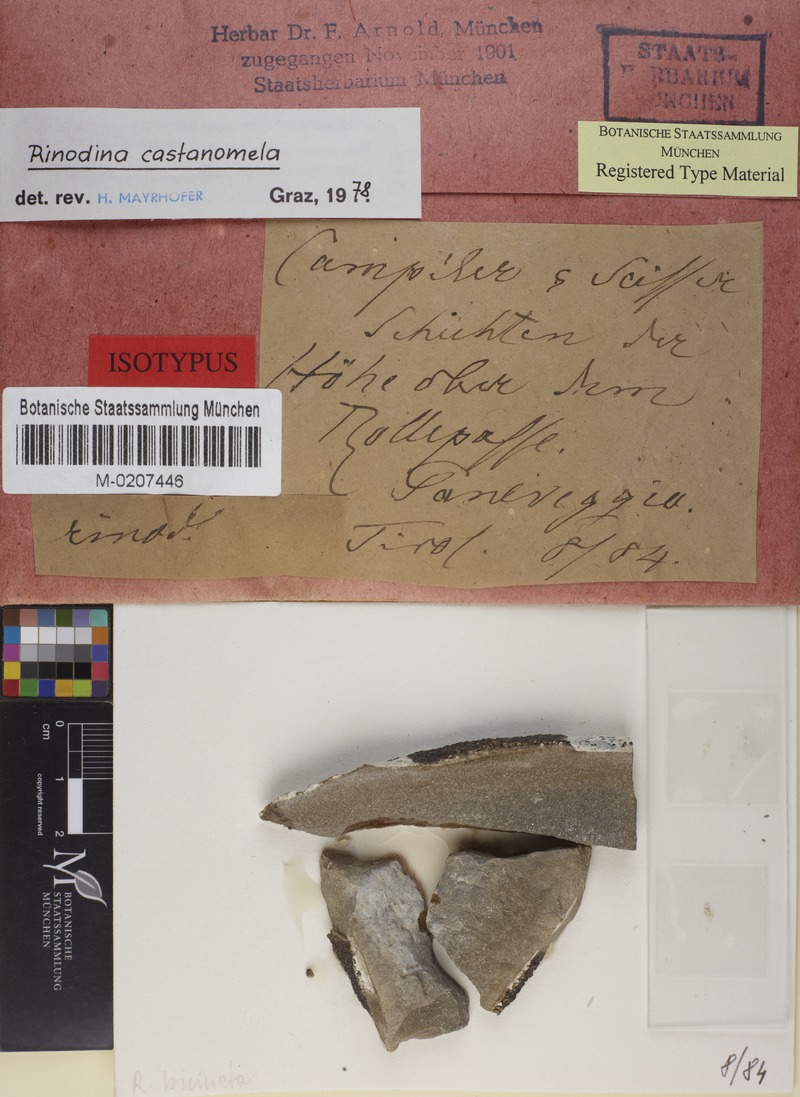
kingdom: Fungi
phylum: Ascomycota
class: Lecanoromycetes
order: Caliciales
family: Physciaceae
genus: Rinodina
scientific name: Rinodina castanomela
